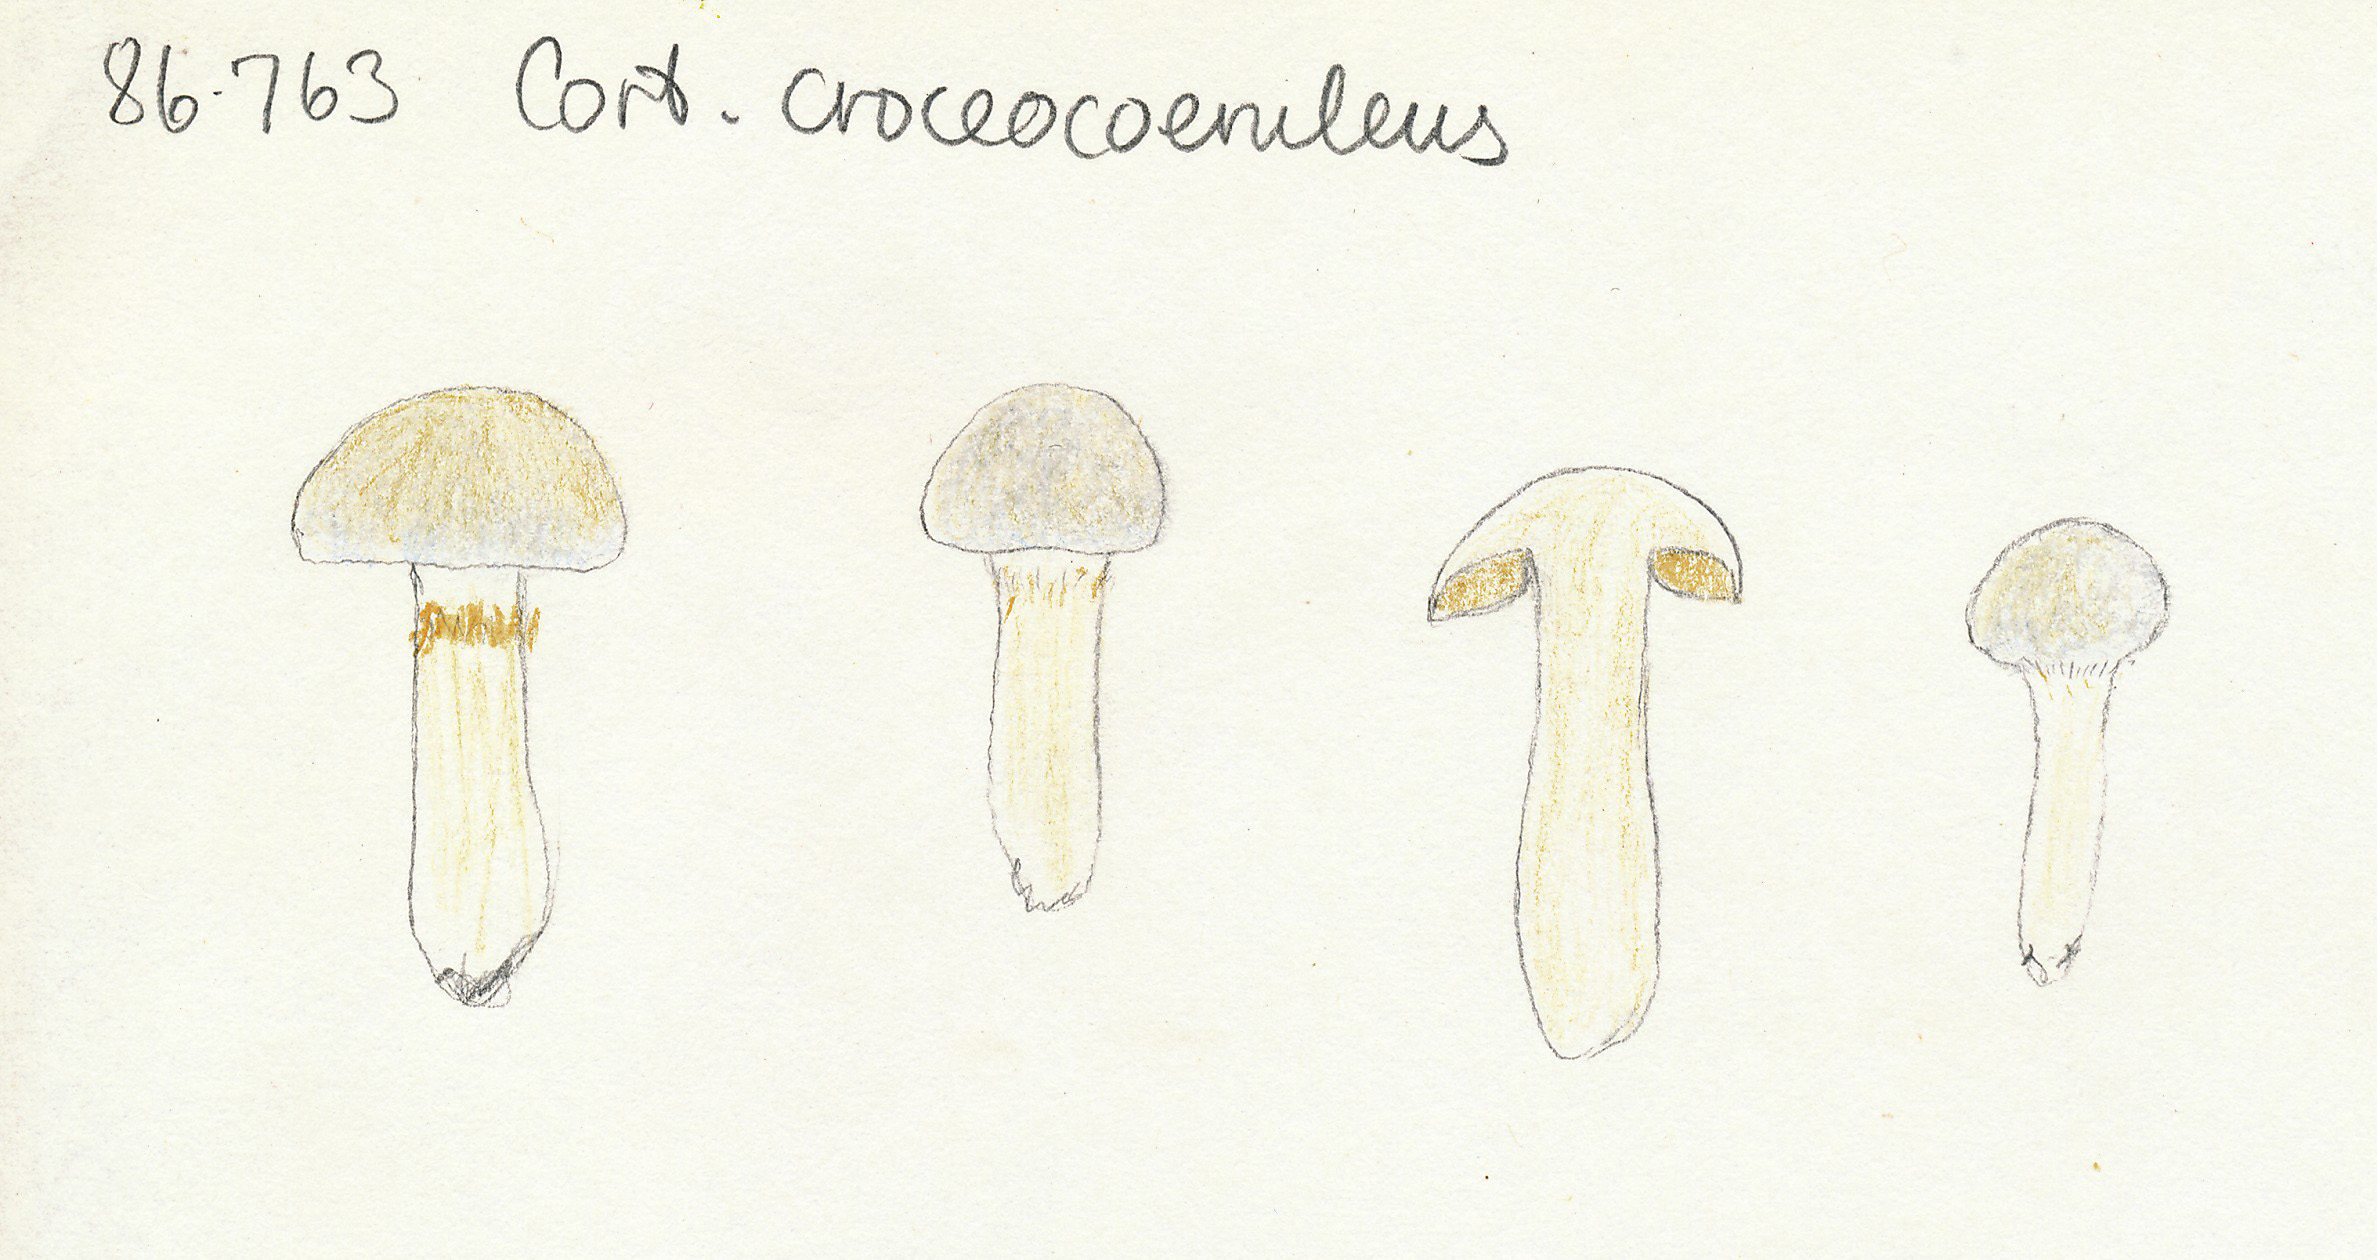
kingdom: Fungi
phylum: Basidiomycota
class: Agaricomycetes
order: Agaricales
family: Cortinariaceae
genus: Thaxterogaster
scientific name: Thaxterogaster croceocoeruleus
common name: blågullig slørhat
